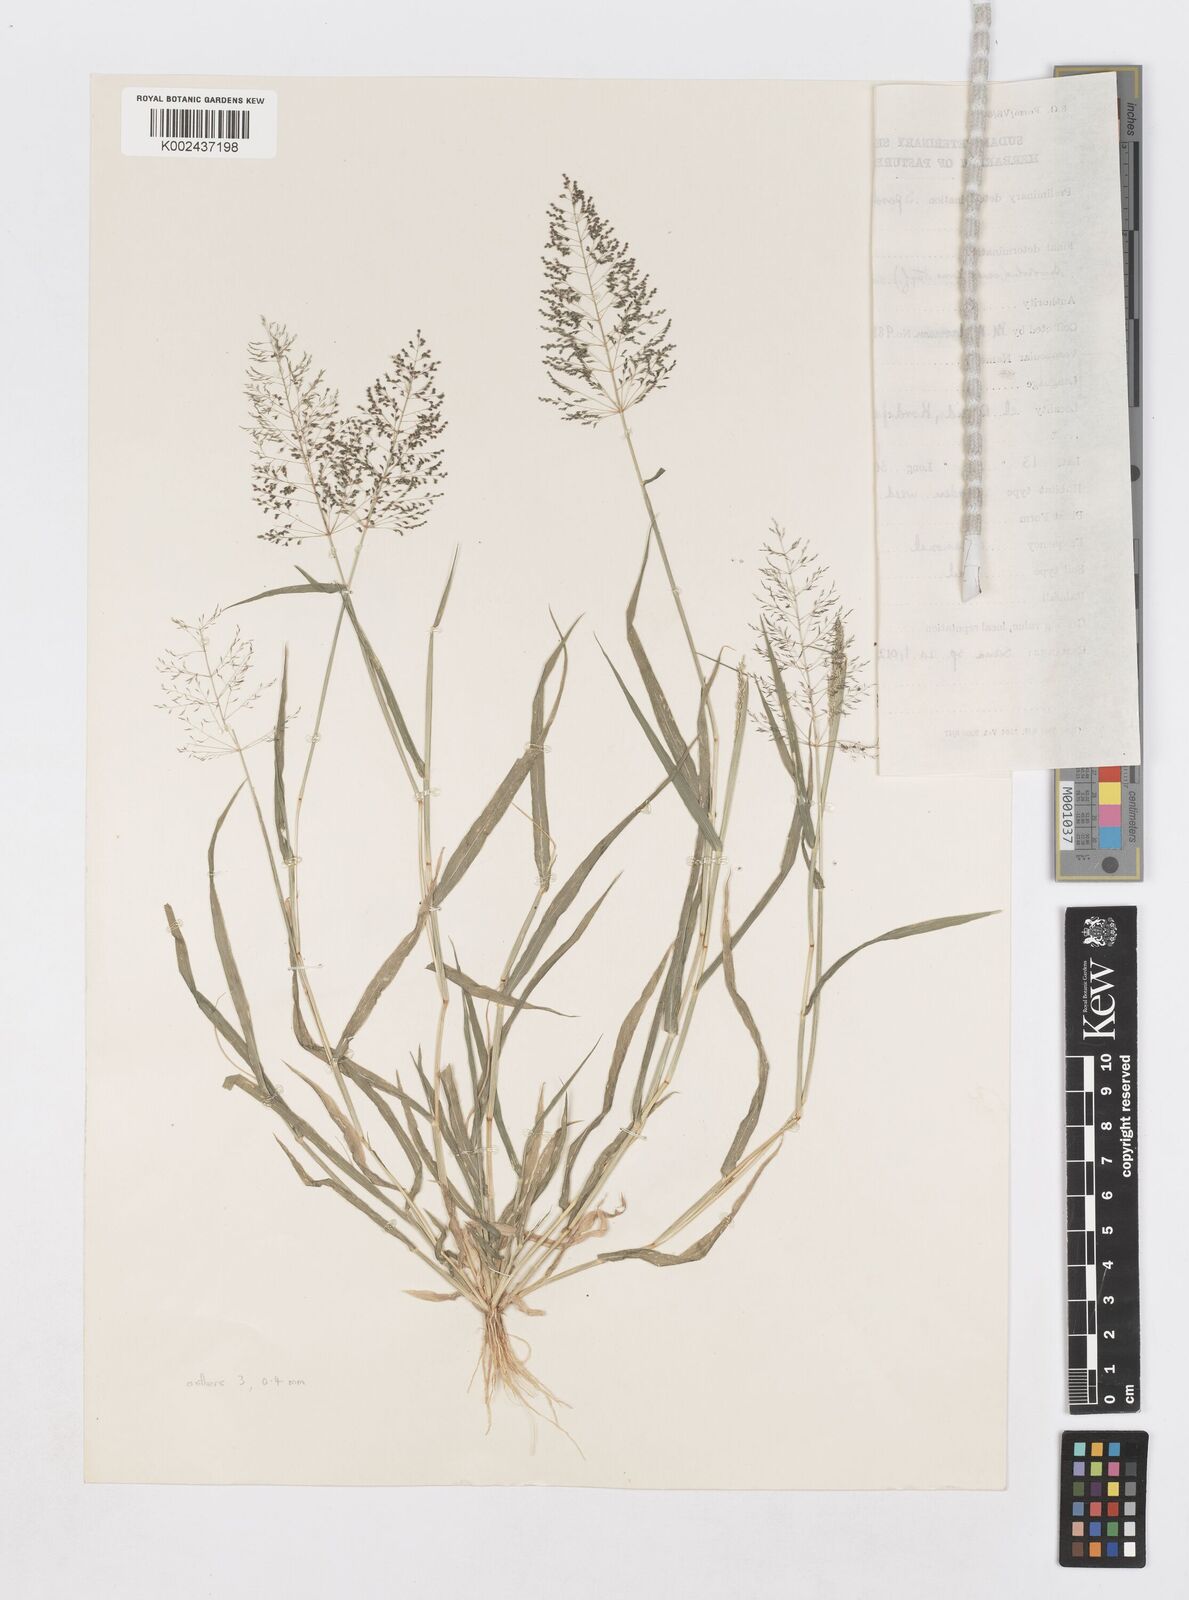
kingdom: Plantae
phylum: Tracheophyta
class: Liliopsida
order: Poales
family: Poaceae
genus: Sporobolus
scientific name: Sporobolus coromandelianus
